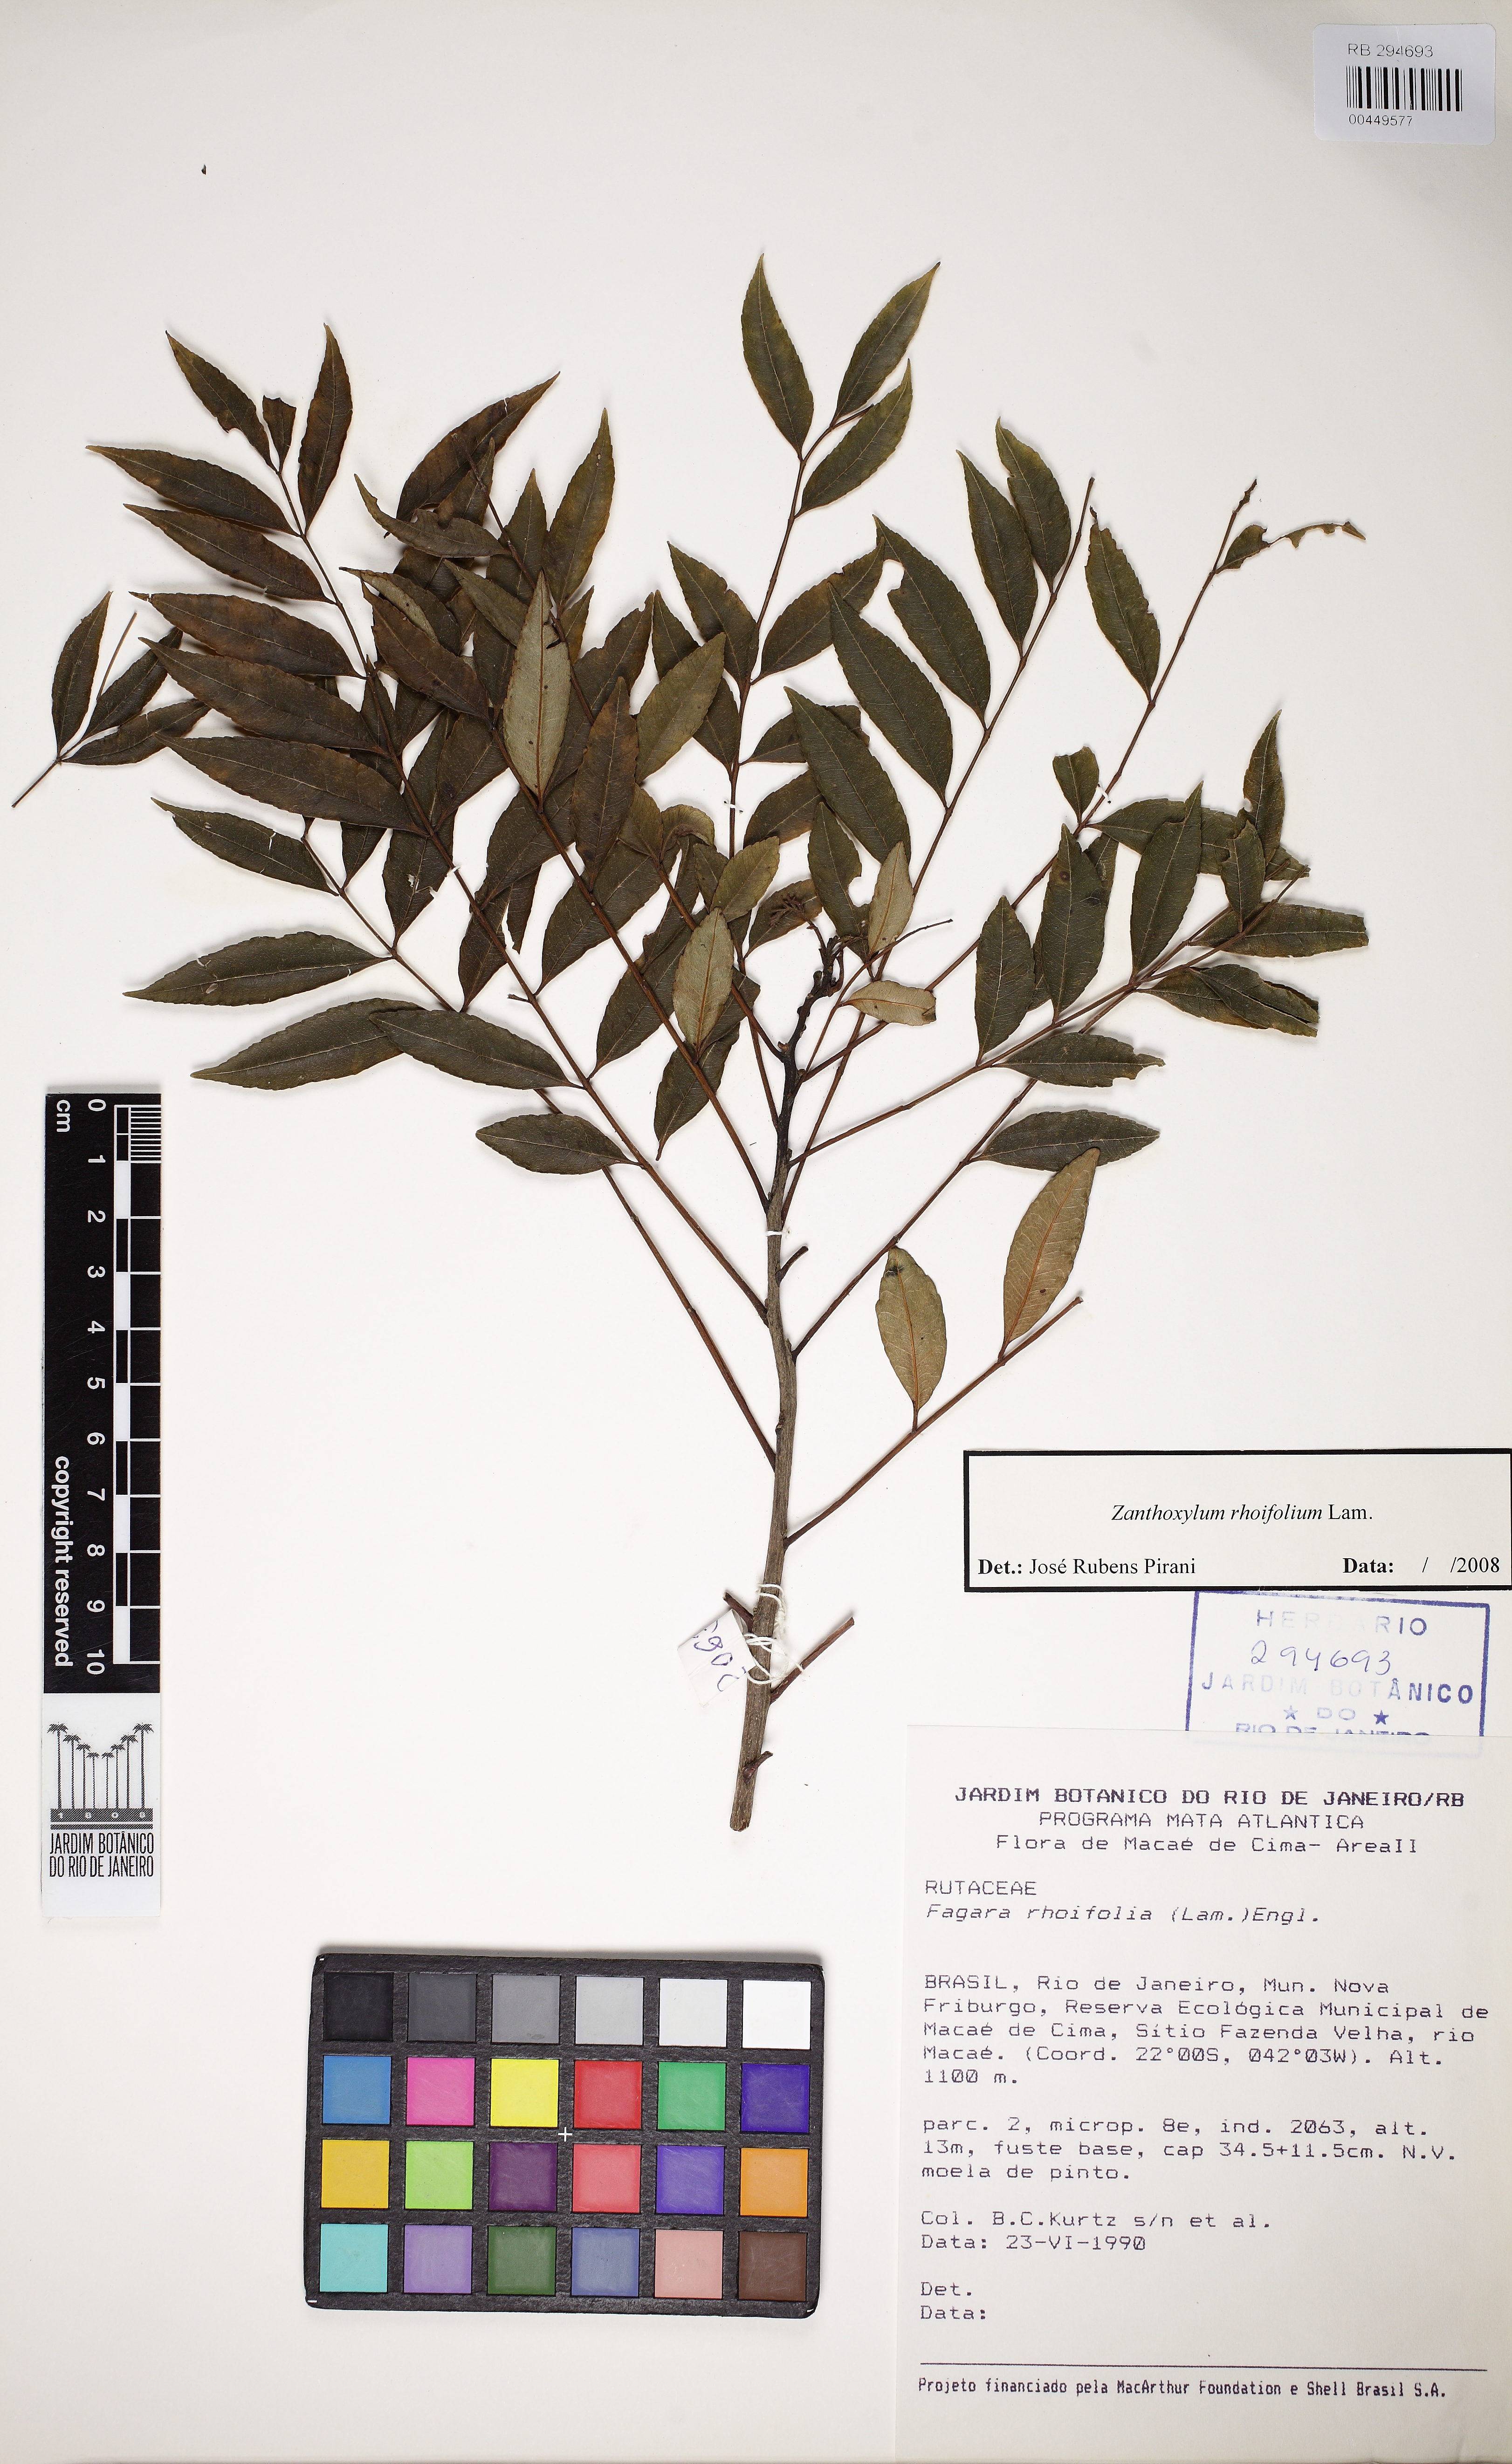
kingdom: Plantae
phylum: Tracheophyta
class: Magnoliopsida
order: Sapindales
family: Rutaceae
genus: Zanthoxylum
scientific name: Zanthoxylum rhoifolium
